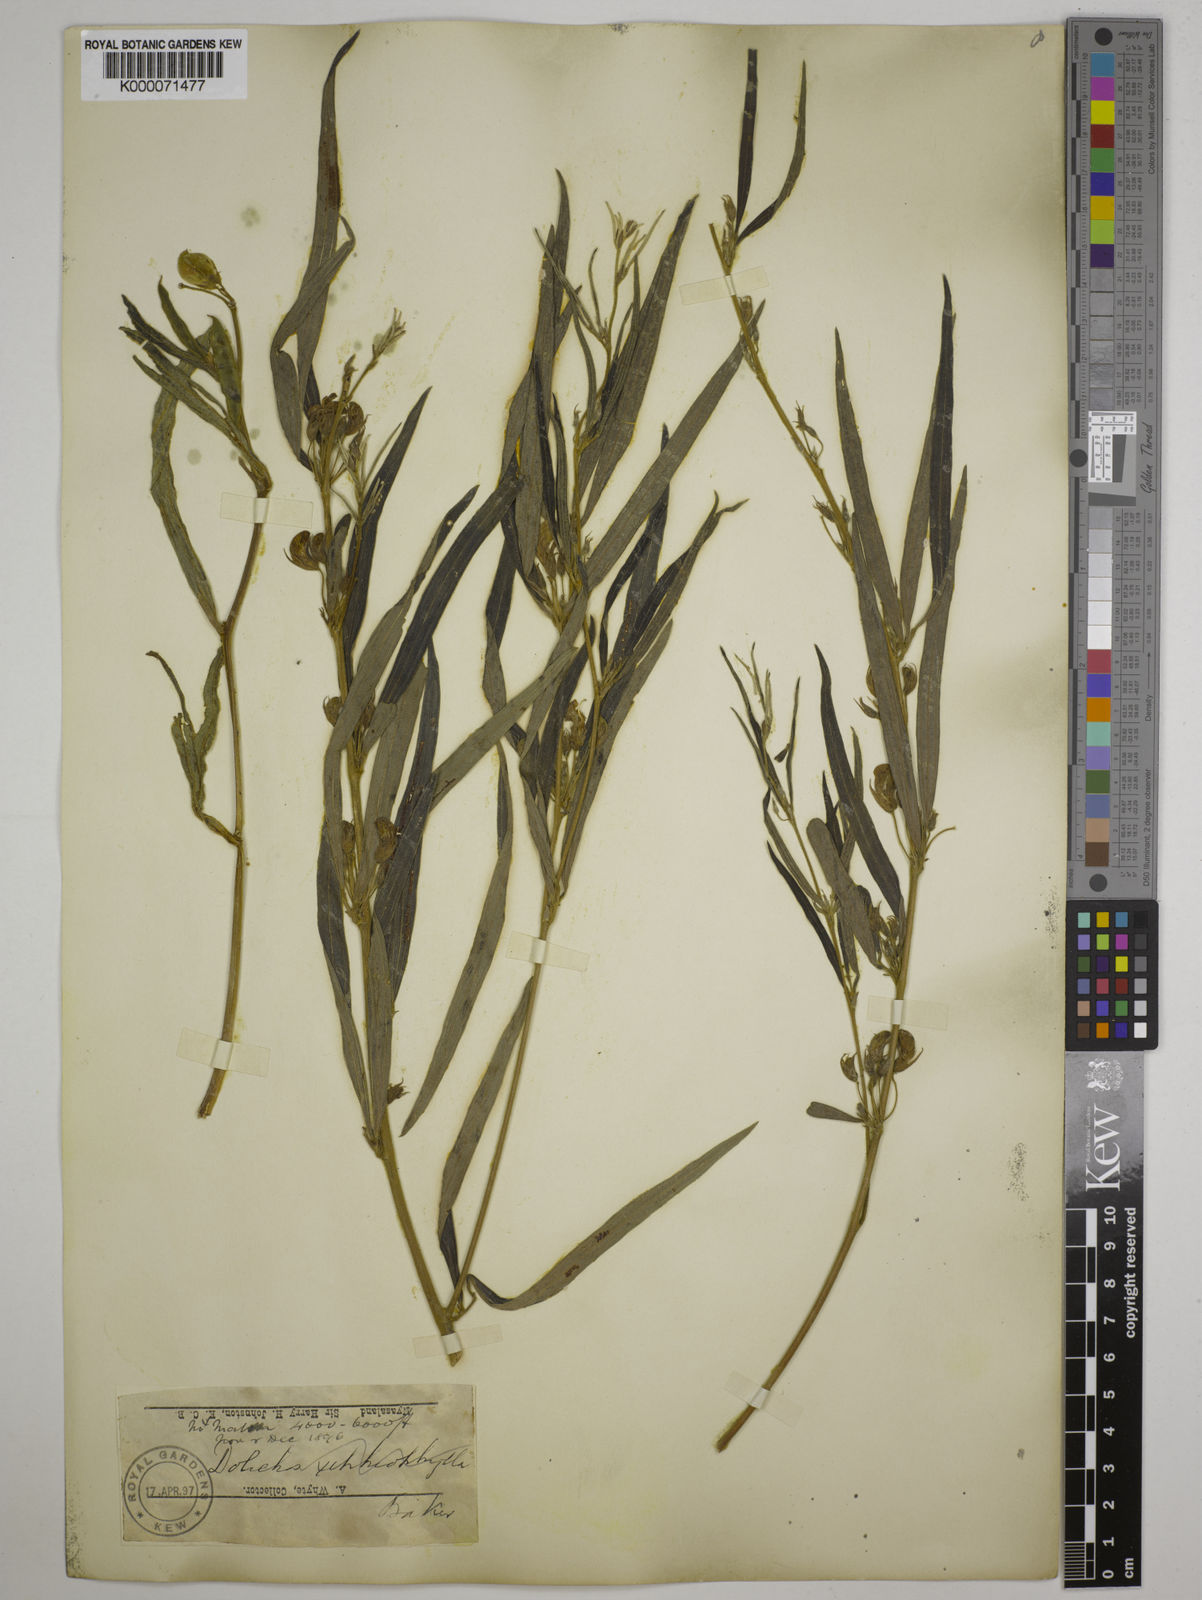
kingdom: Plantae
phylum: Tracheophyta
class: Magnoliopsida
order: Fabales
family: Fabaceae
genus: Dolichos
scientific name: Dolichos trinervatus
